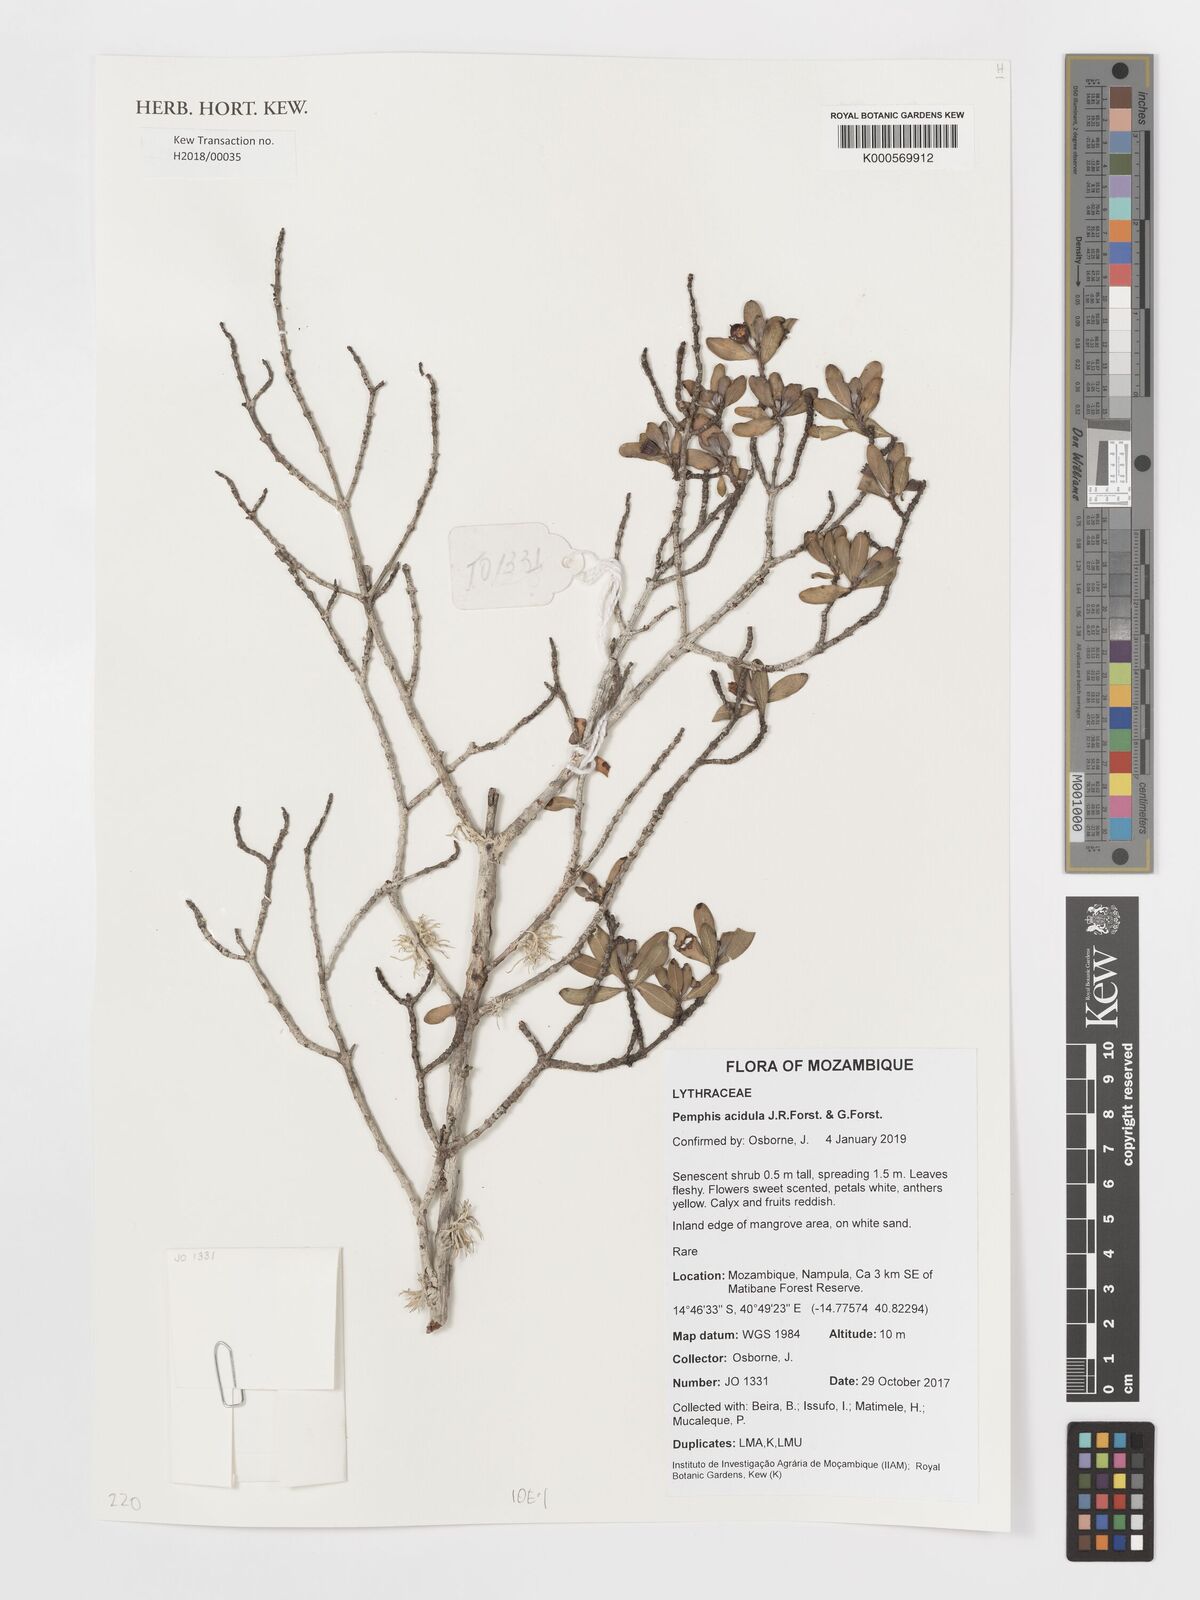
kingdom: Plantae
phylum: Tracheophyta
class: Magnoliopsida
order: Myrtales
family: Lythraceae
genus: Pemphis
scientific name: Pemphis acidula
